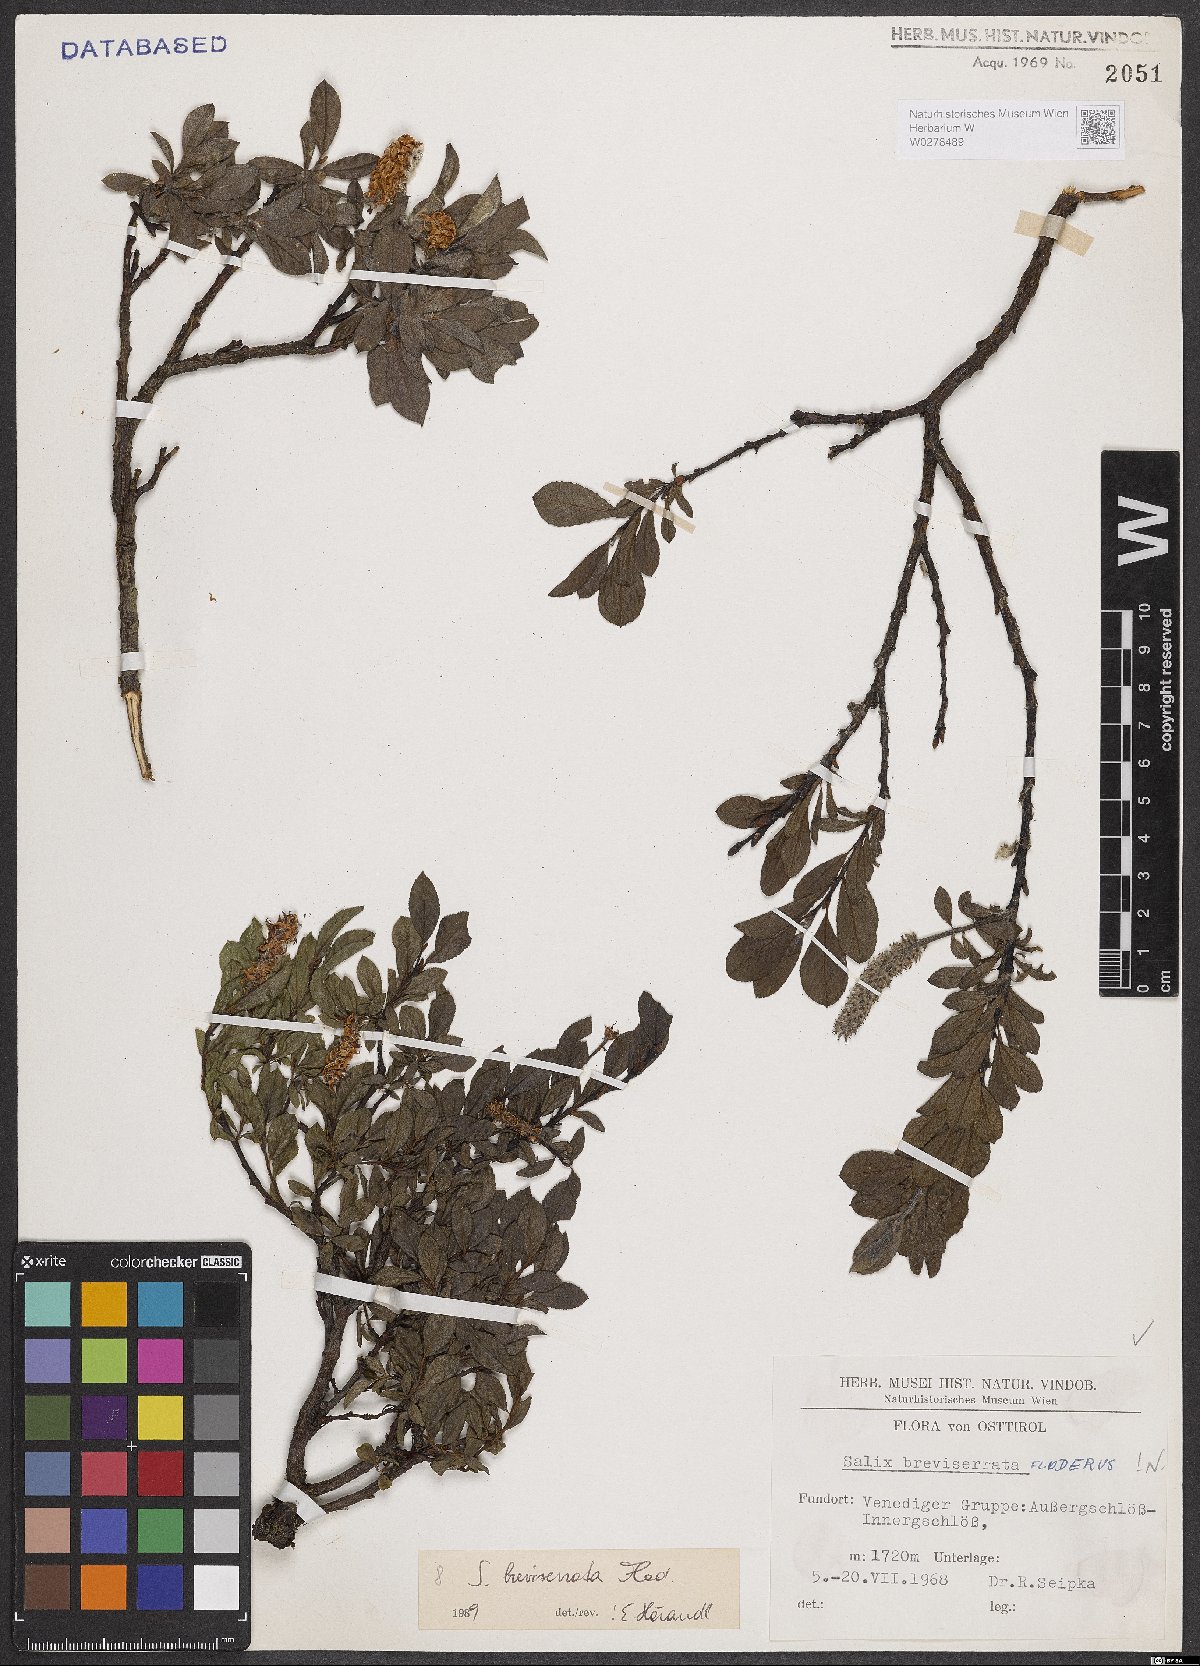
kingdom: Plantae
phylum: Tracheophyta
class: Magnoliopsida
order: Malpighiales
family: Salicaceae
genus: Salix
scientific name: Salix breviserrata
